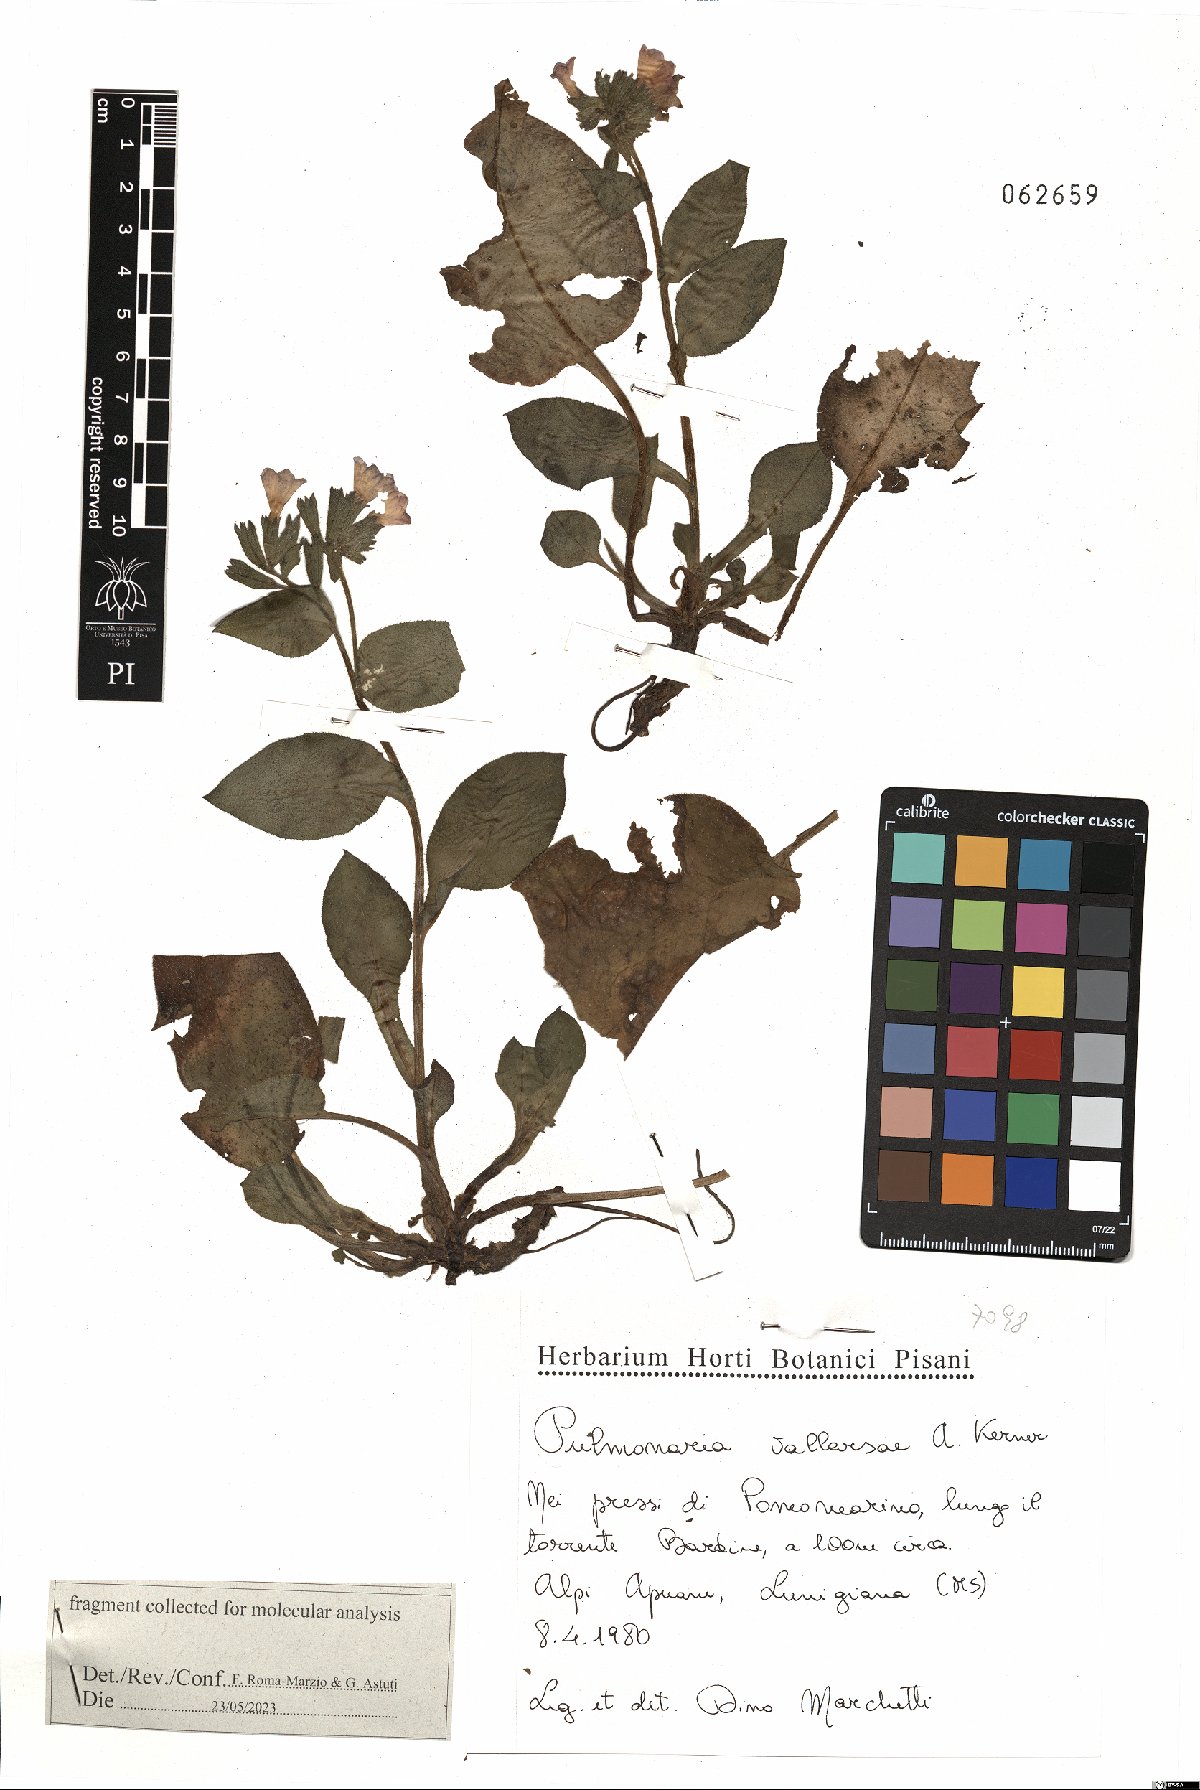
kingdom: Plantae
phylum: Tracheophyta
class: Magnoliopsida
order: Boraginales
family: Boraginaceae
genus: Pulmonaria
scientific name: Pulmonaria hirta
